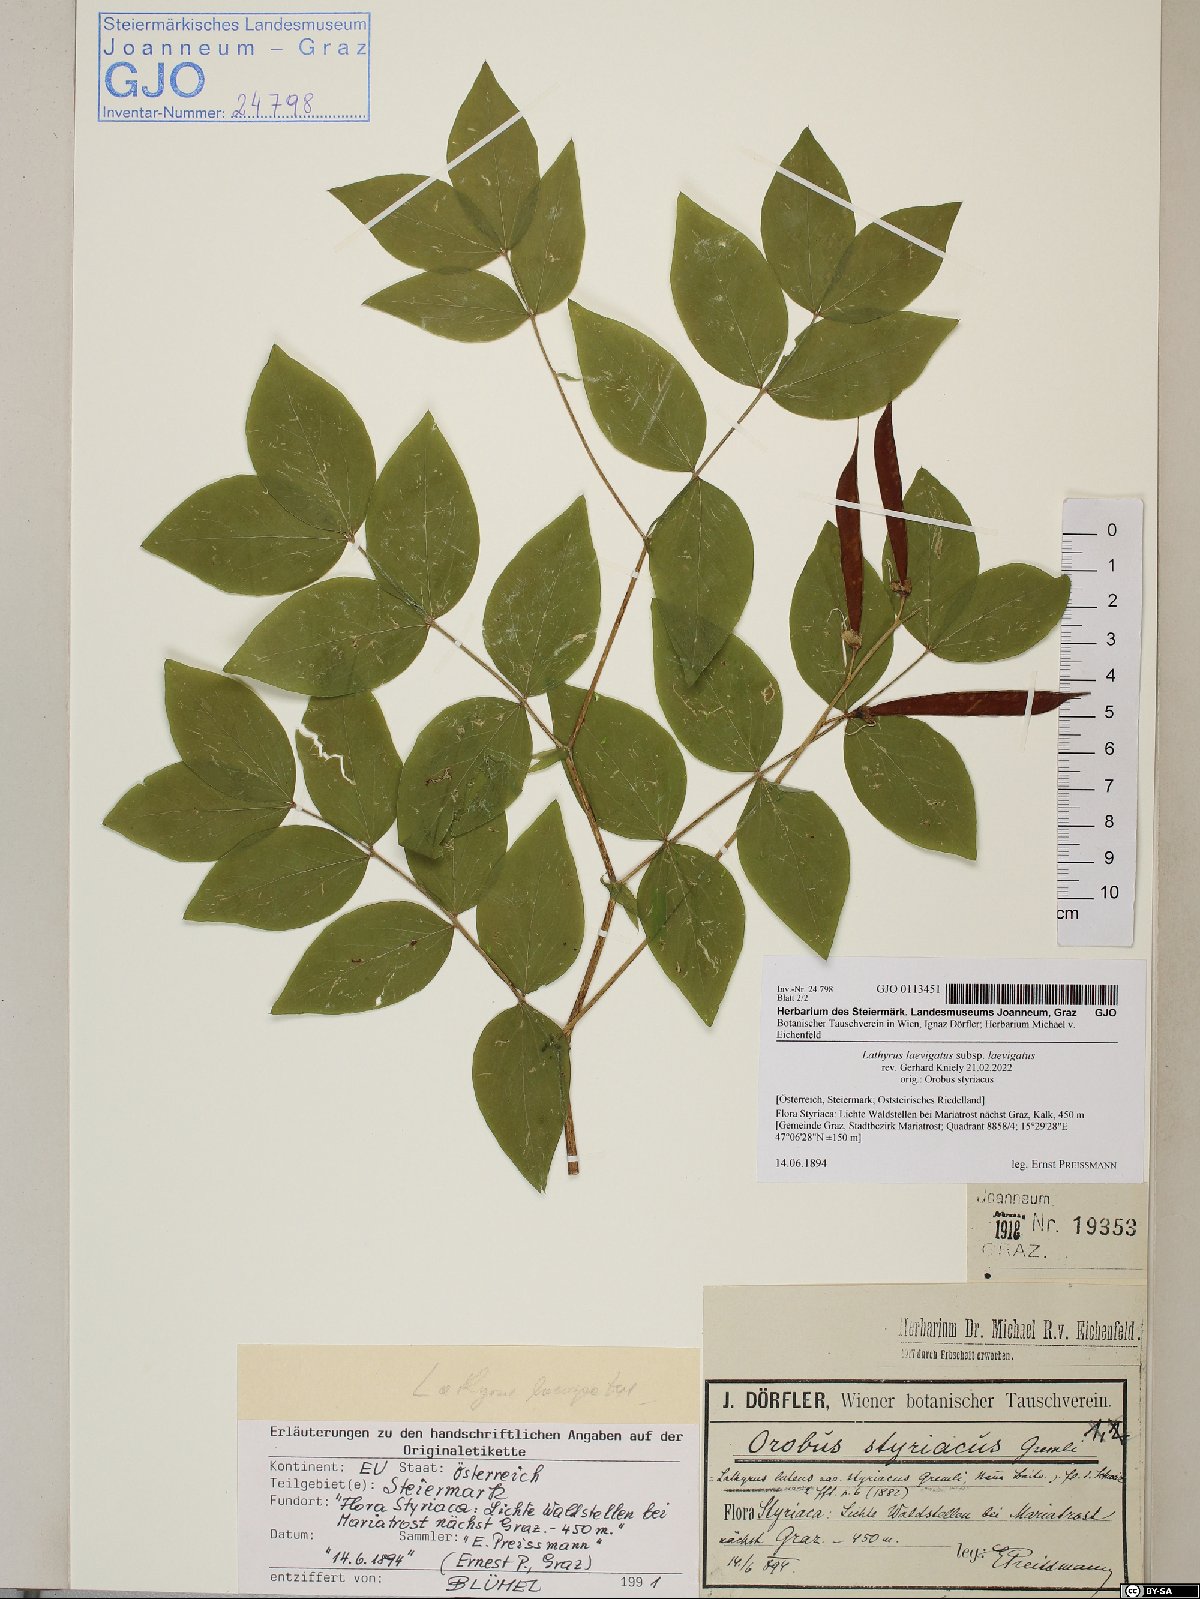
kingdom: Plantae
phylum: Tracheophyta
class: Magnoliopsida
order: Fabales
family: Fabaceae
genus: Lathyrus
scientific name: Lathyrus laevigatus
